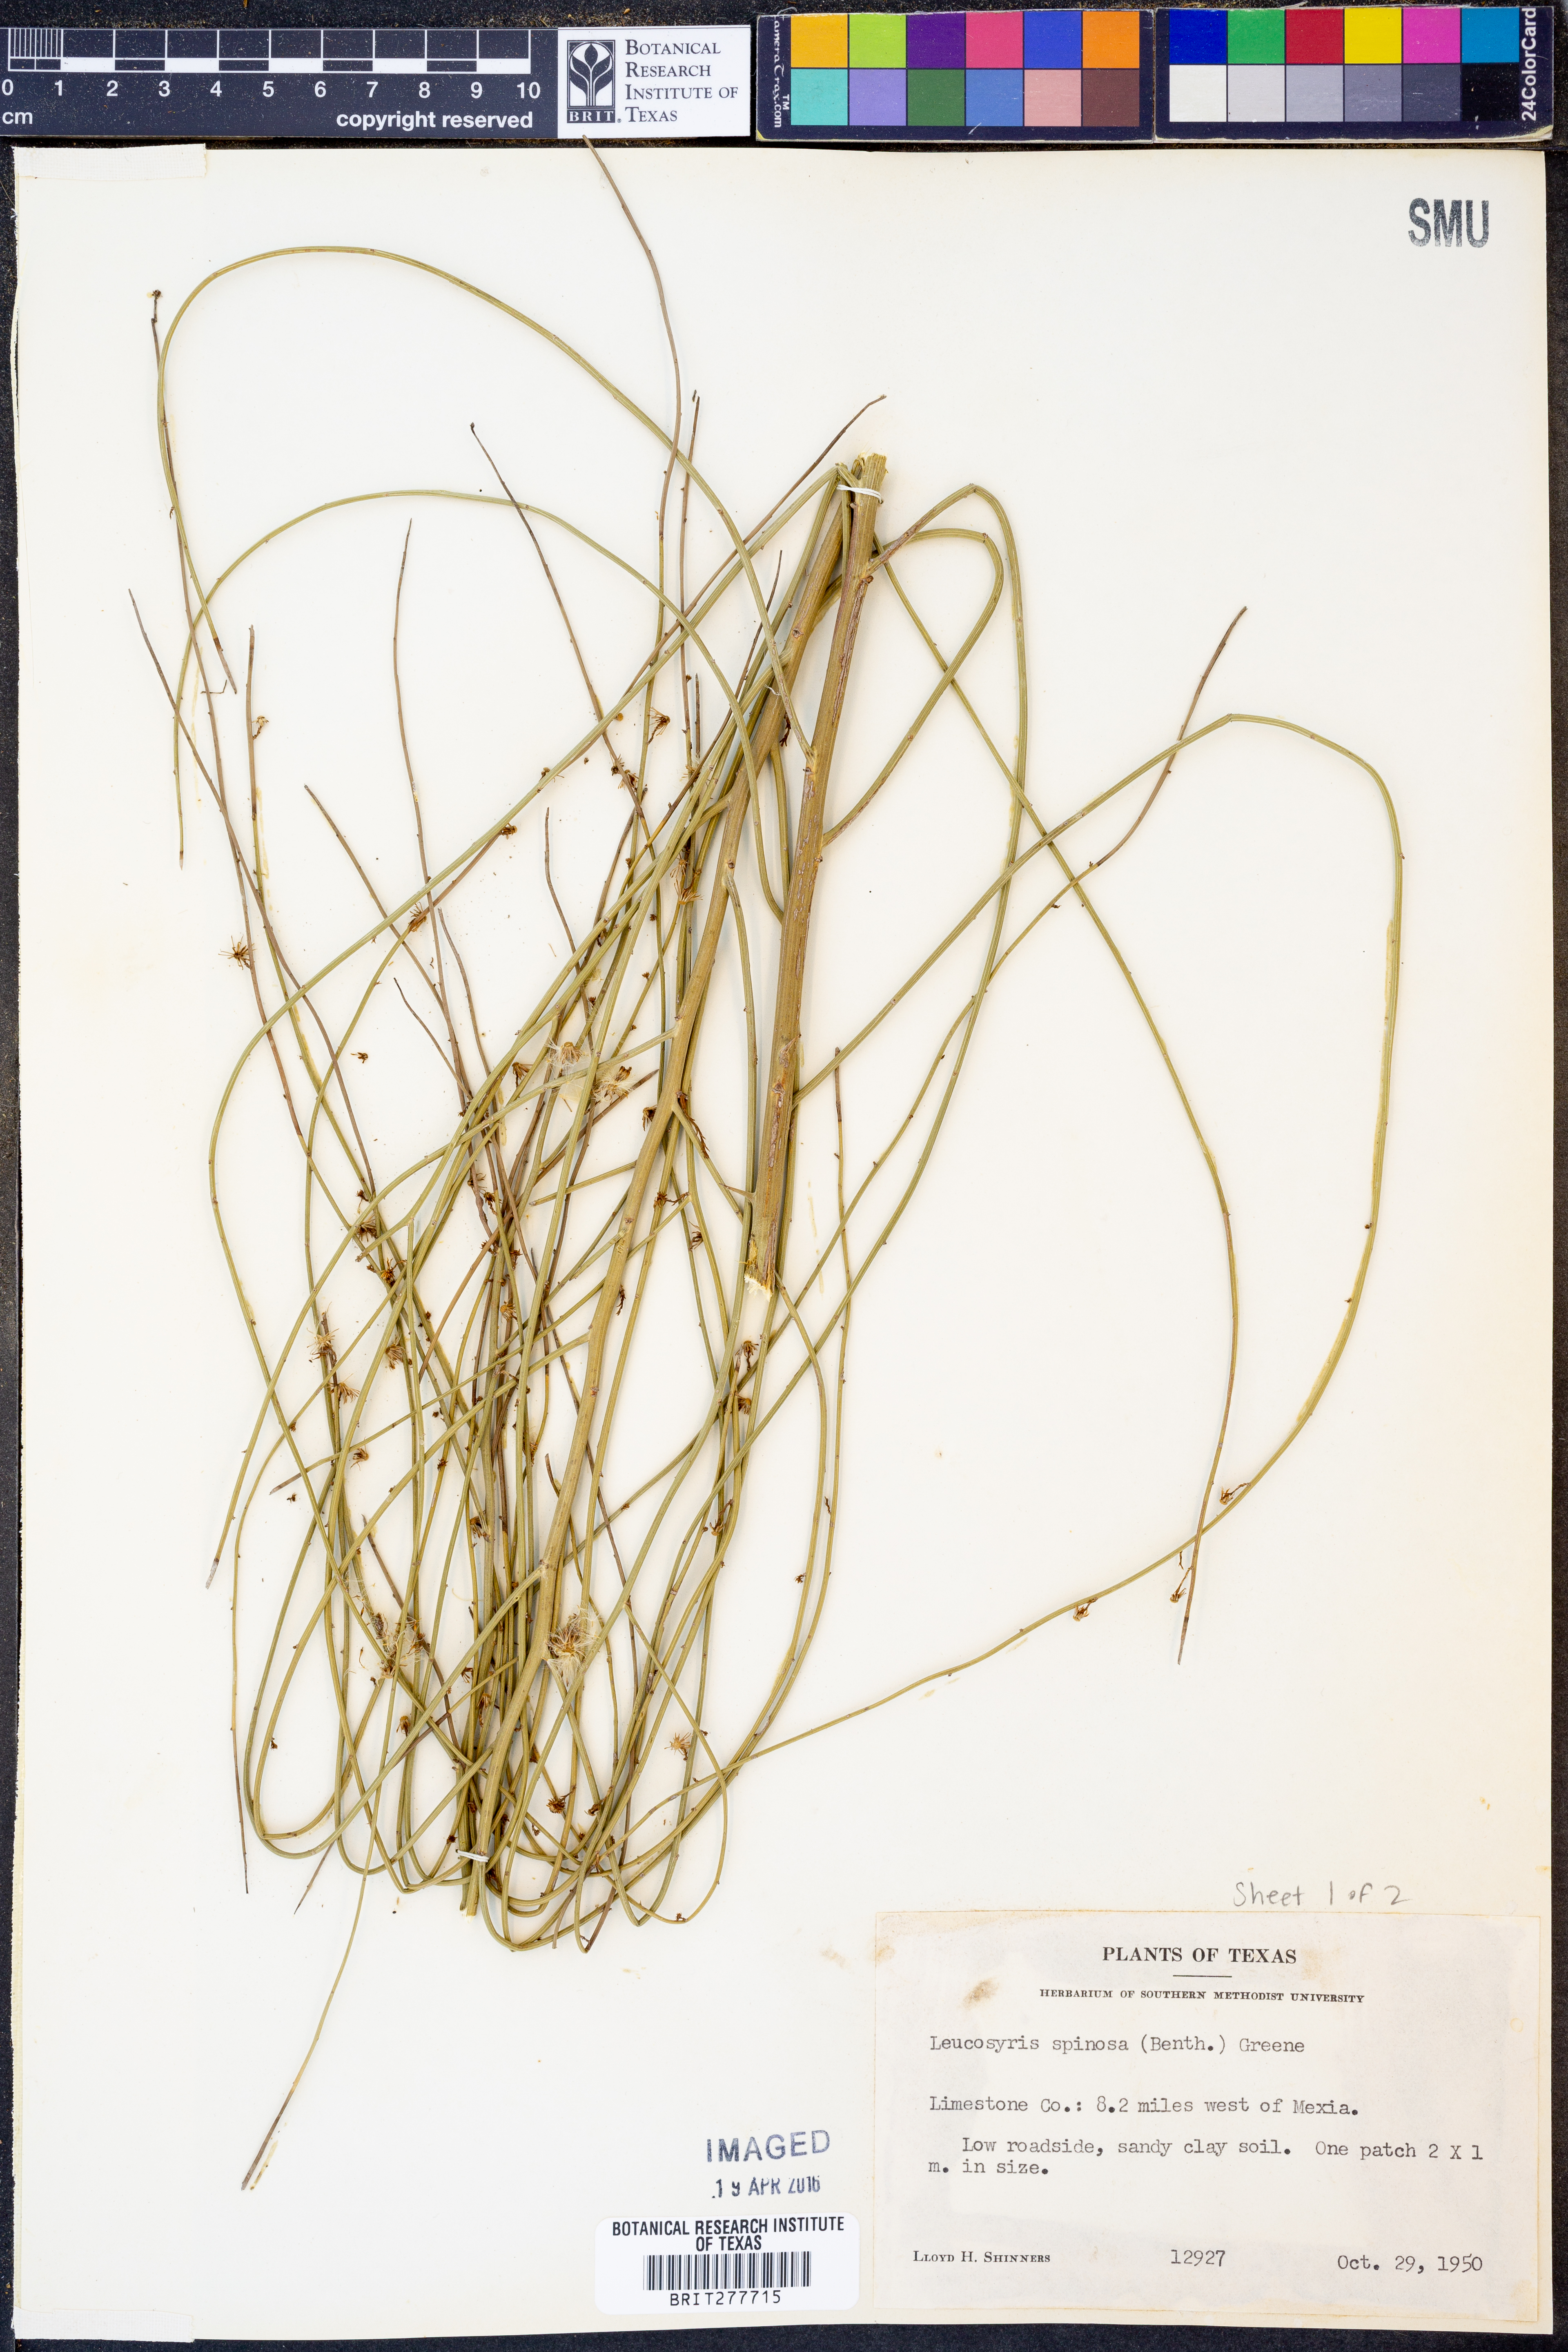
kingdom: Plantae
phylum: Tracheophyta
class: Magnoliopsida
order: Asterales
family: Asteraceae
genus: Chloracantha
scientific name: Chloracantha spinosa
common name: Mexican devilweed
